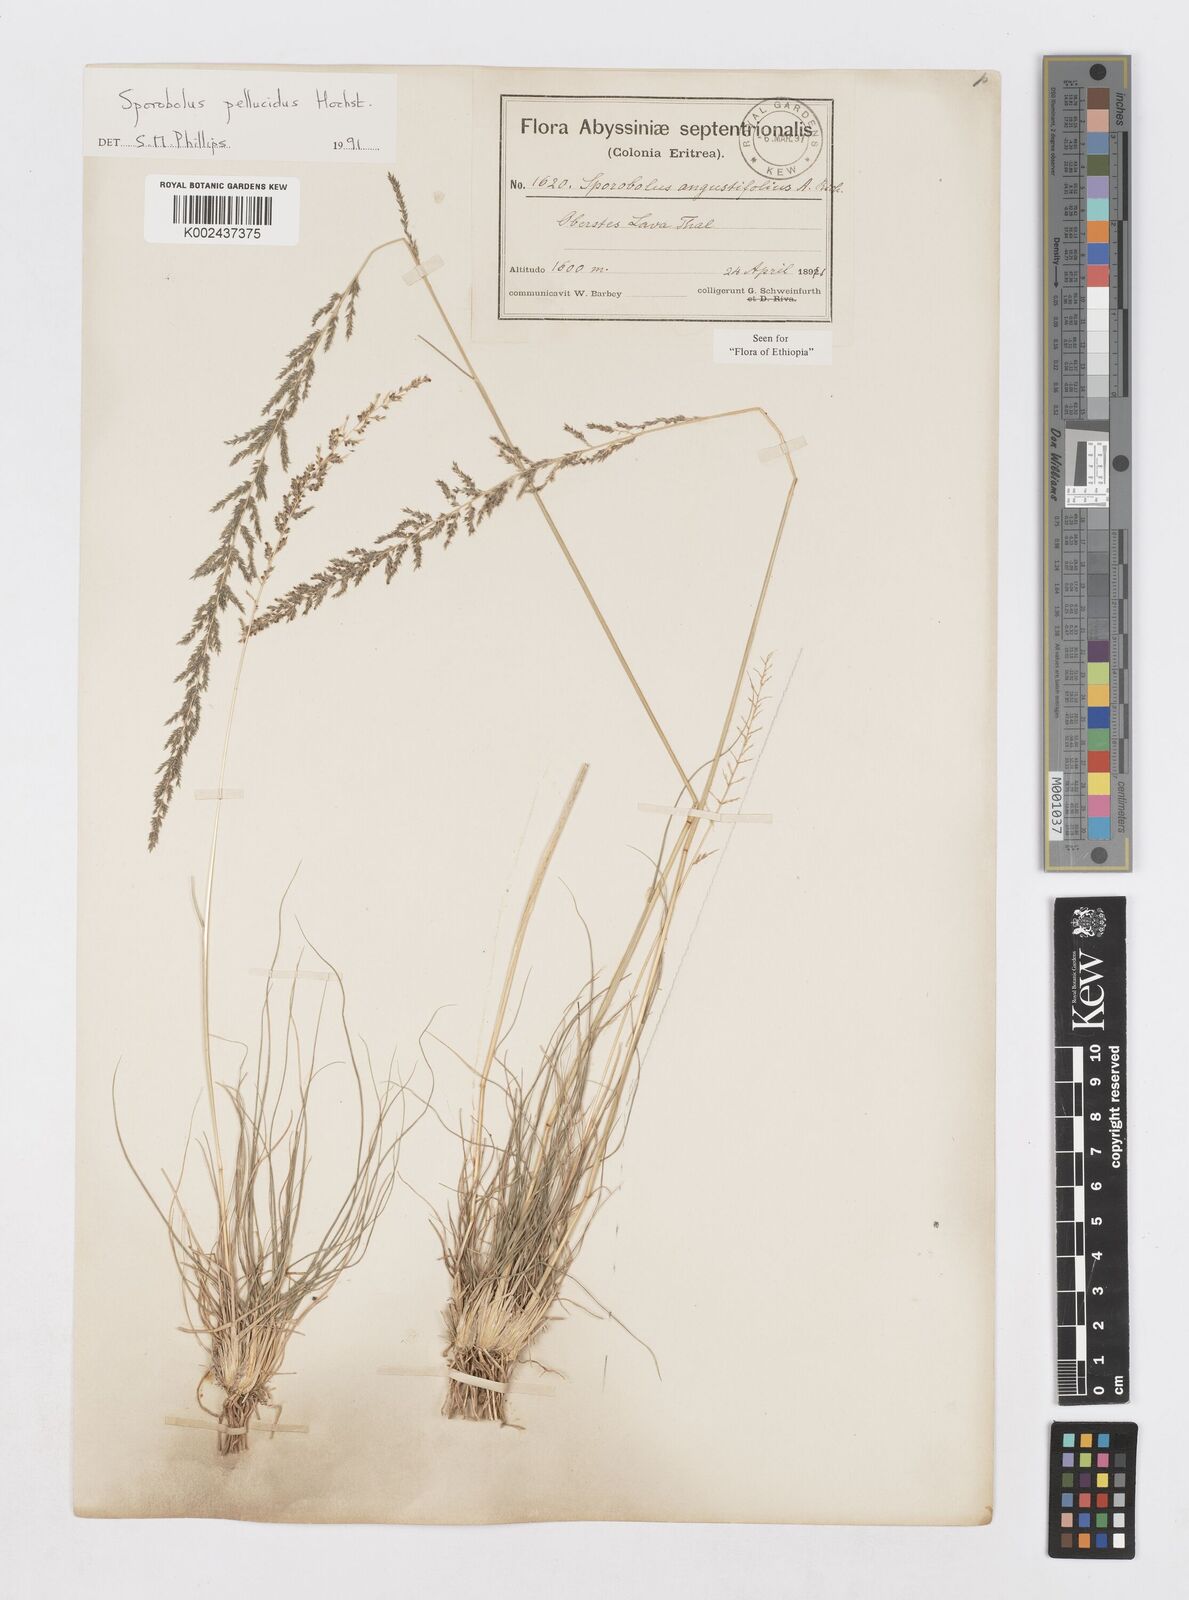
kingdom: Plantae
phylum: Tracheophyta
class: Liliopsida
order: Poales
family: Poaceae
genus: Sporobolus
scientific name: Sporobolus pellucidus
